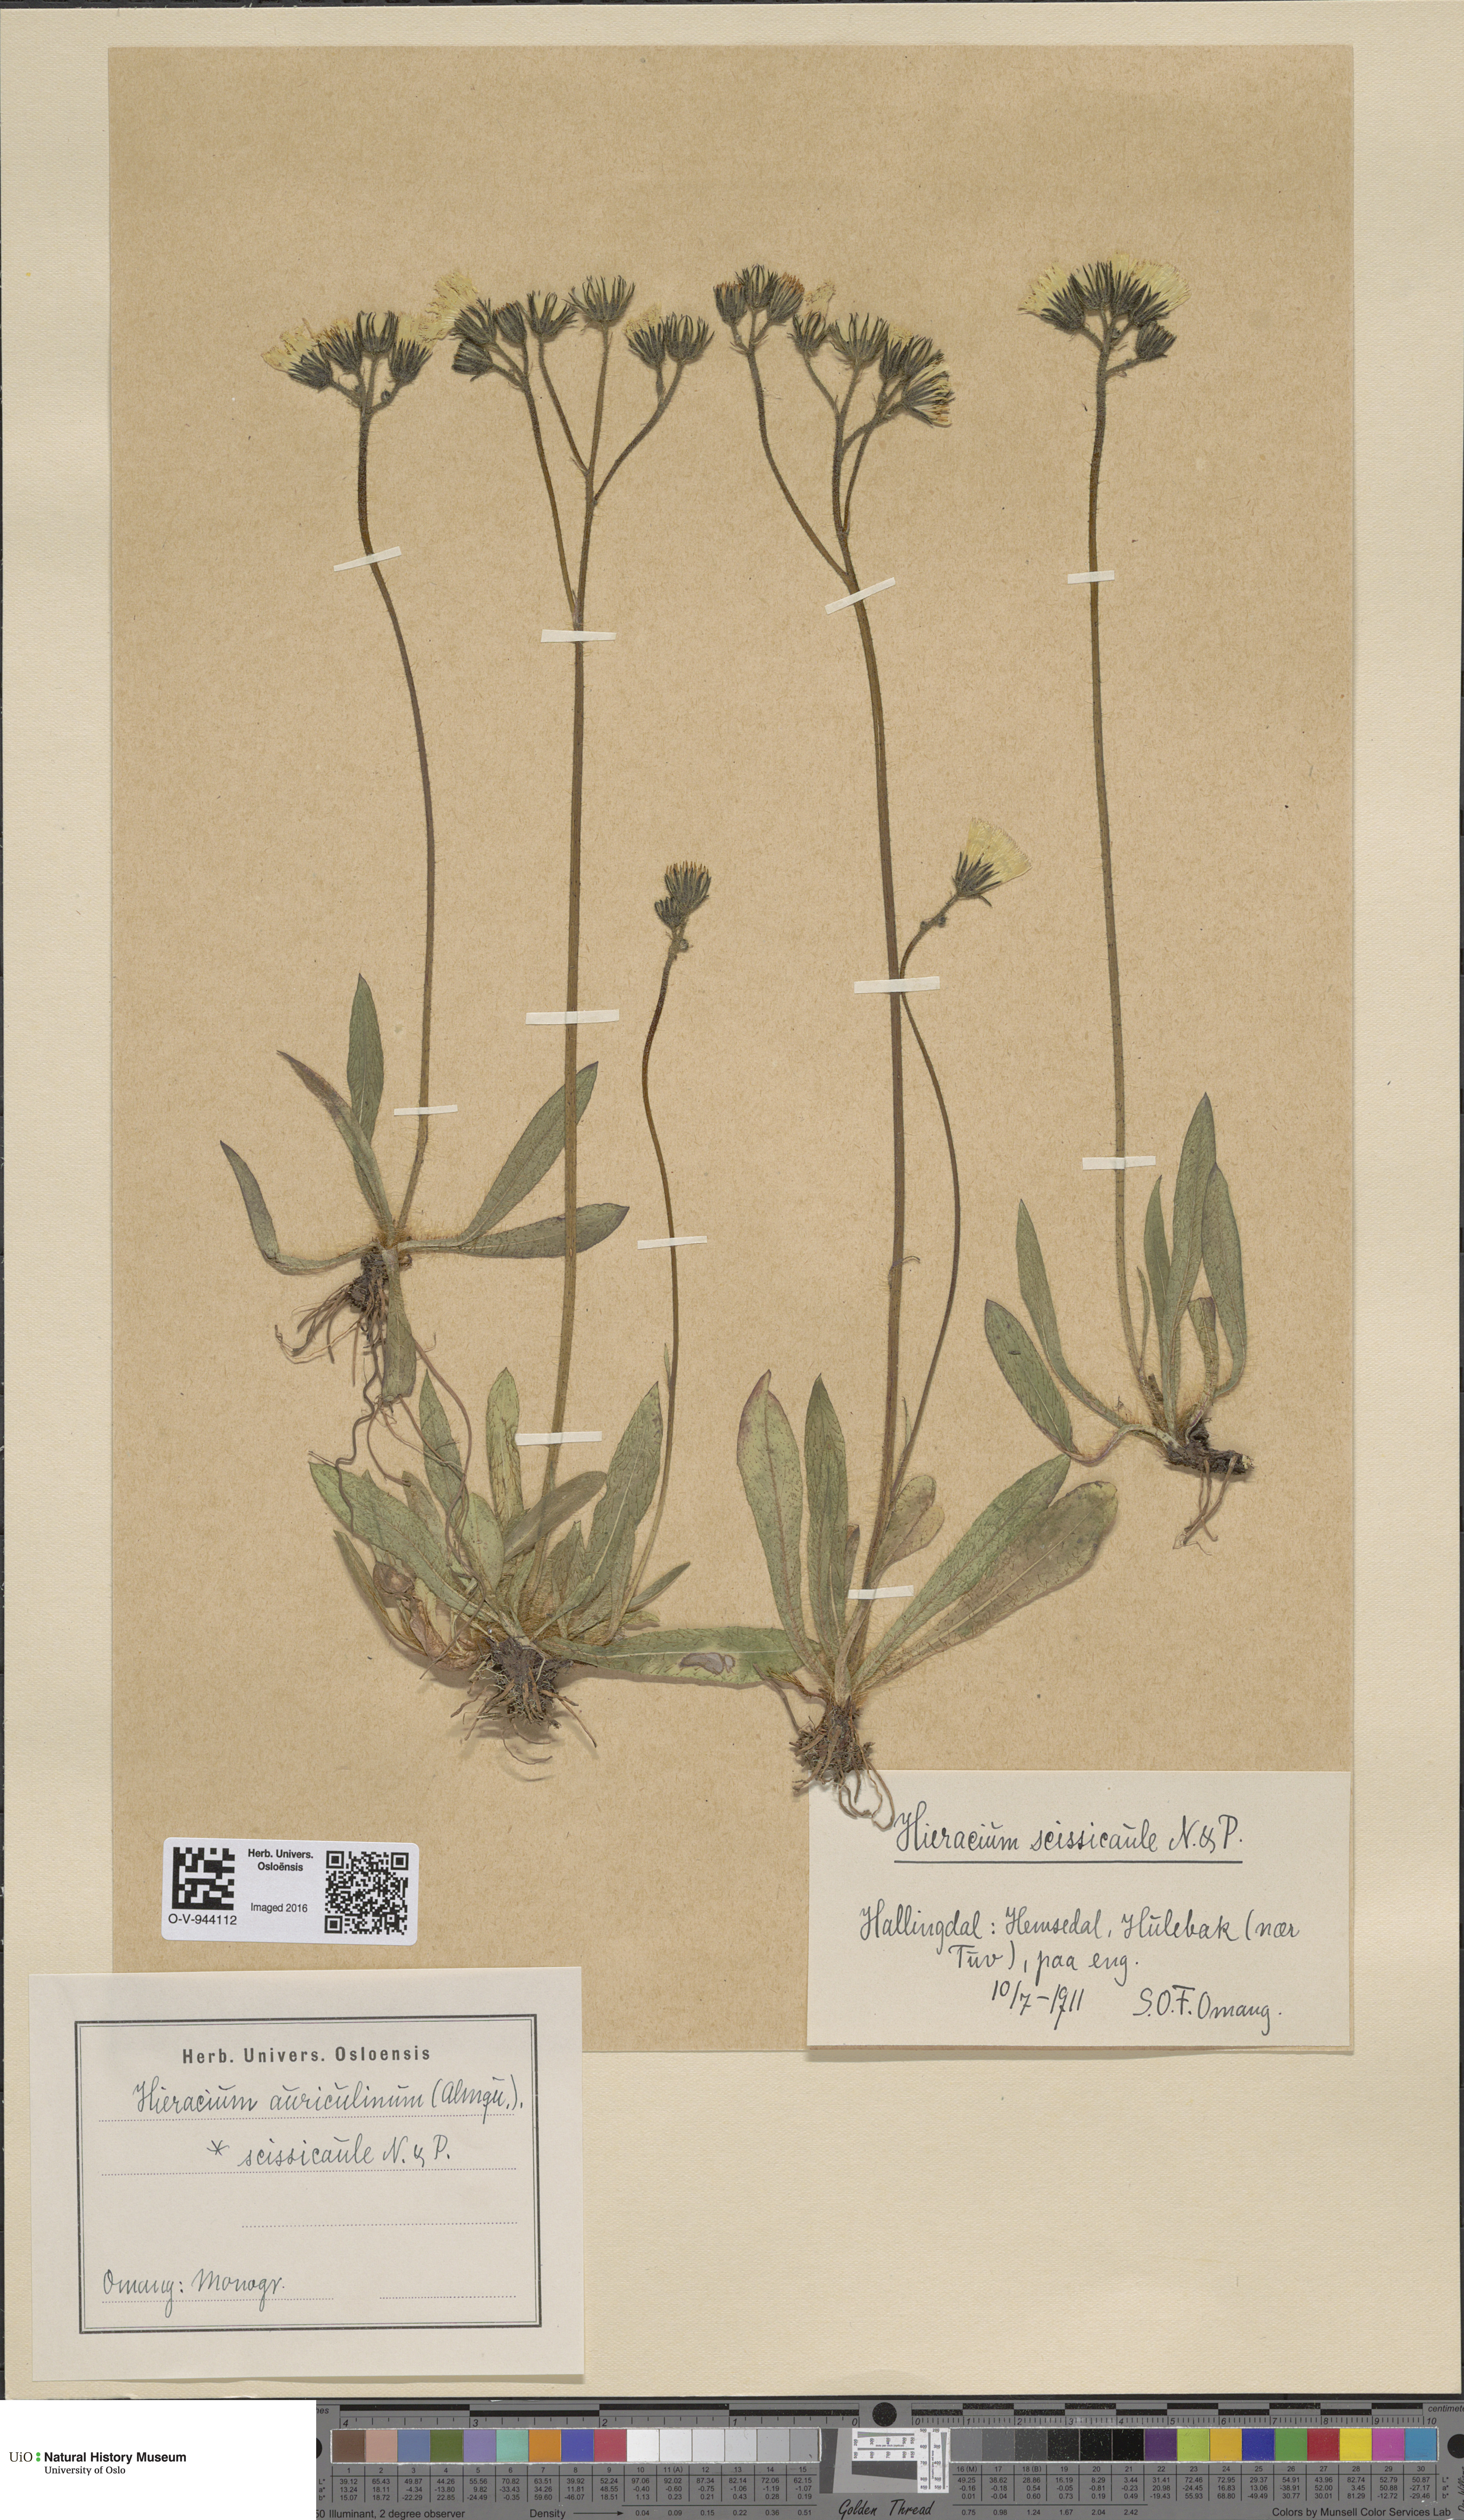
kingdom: Plantae
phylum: Tracheophyta
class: Magnoliopsida
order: Asterales
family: Asteraceae
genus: Pilosella
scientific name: Pilosella dubia
